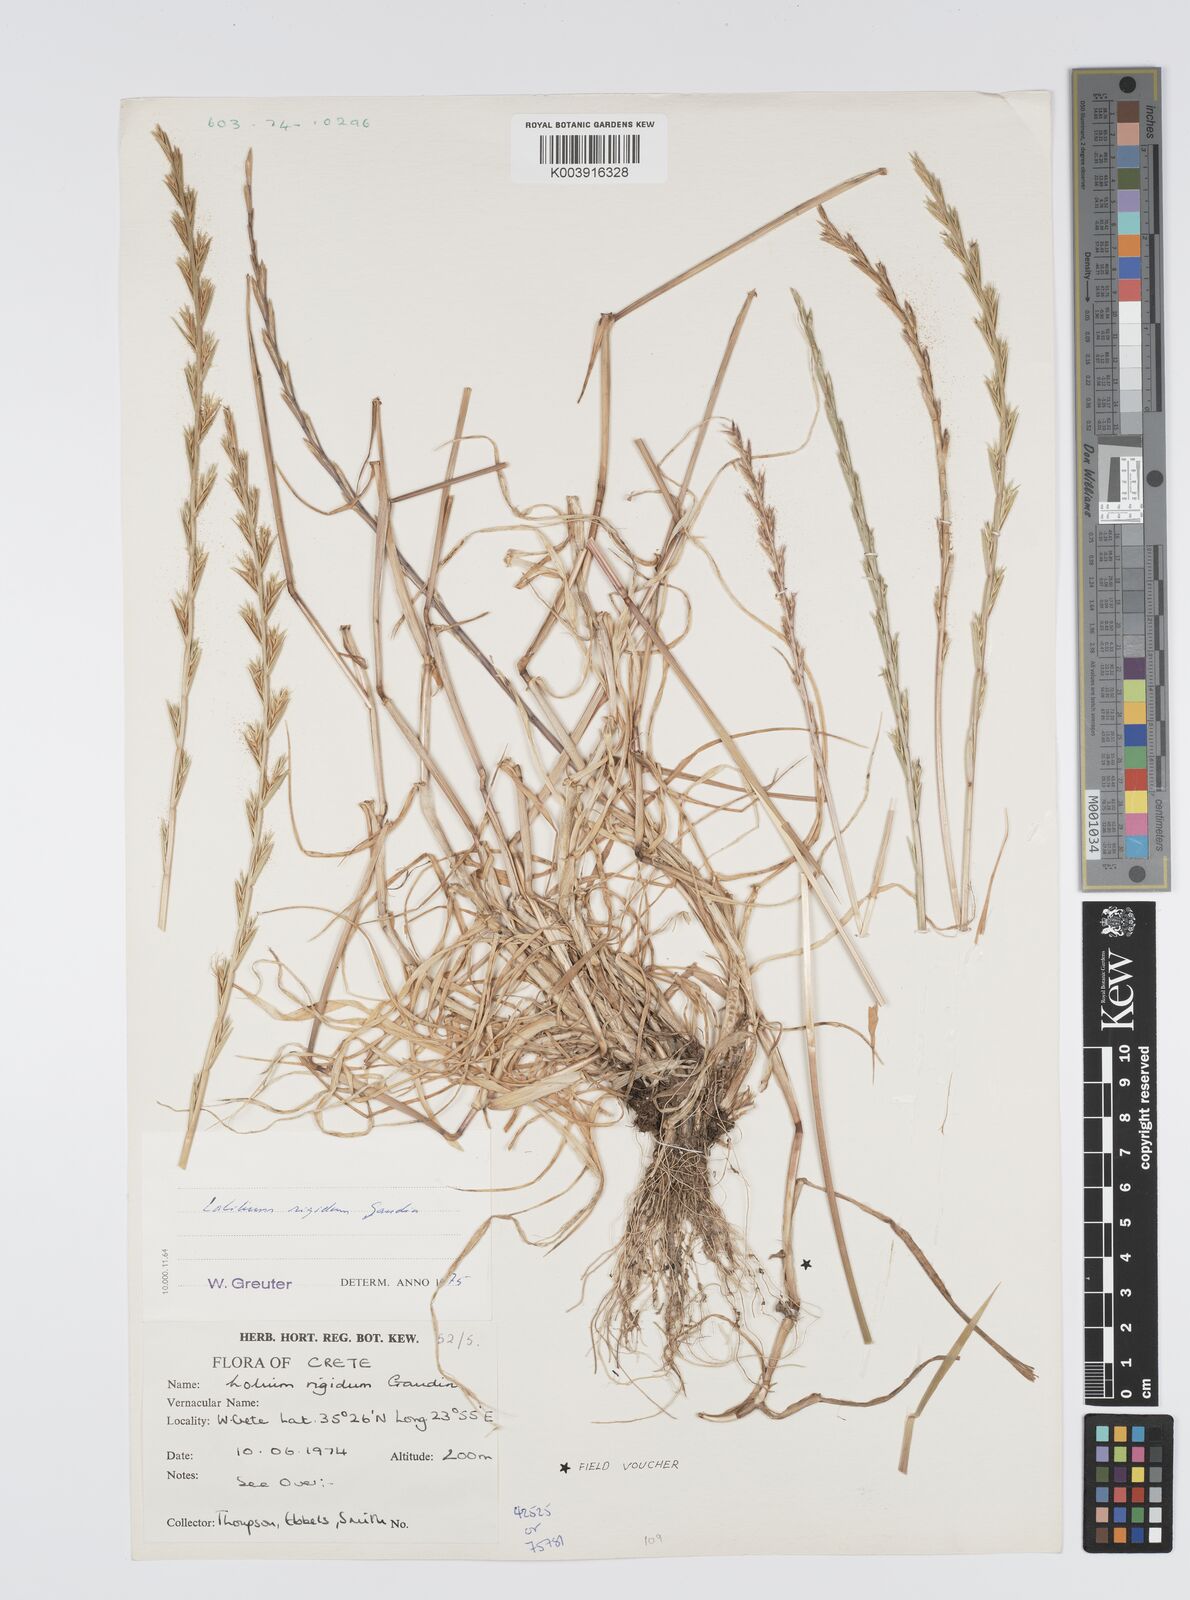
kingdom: Plantae
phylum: Tracheophyta
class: Liliopsida
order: Poales
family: Poaceae
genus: Lolium
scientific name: Lolium rigidum
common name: Wimmera ryegrass
